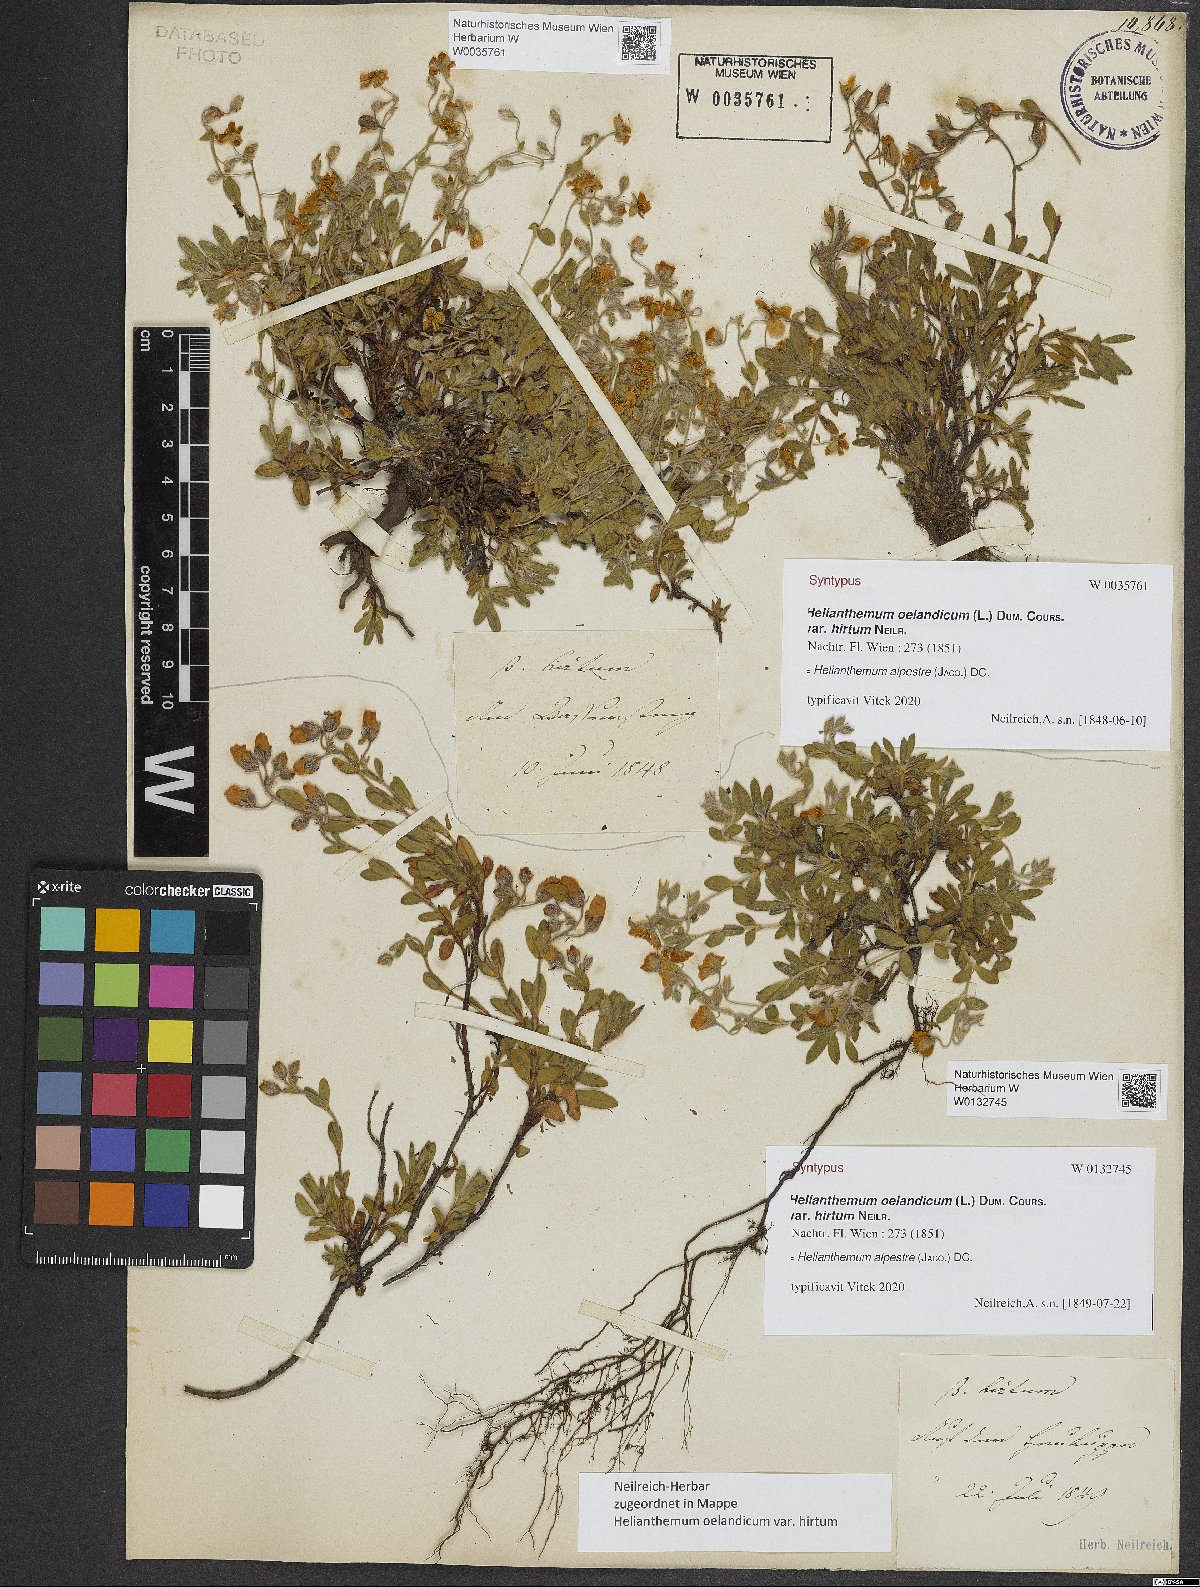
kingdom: Plantae
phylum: Tracheophyta
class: Magnoliopsida
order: Malvales
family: Cistaceae
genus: Helianthemum
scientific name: Helianthemum alpestre
